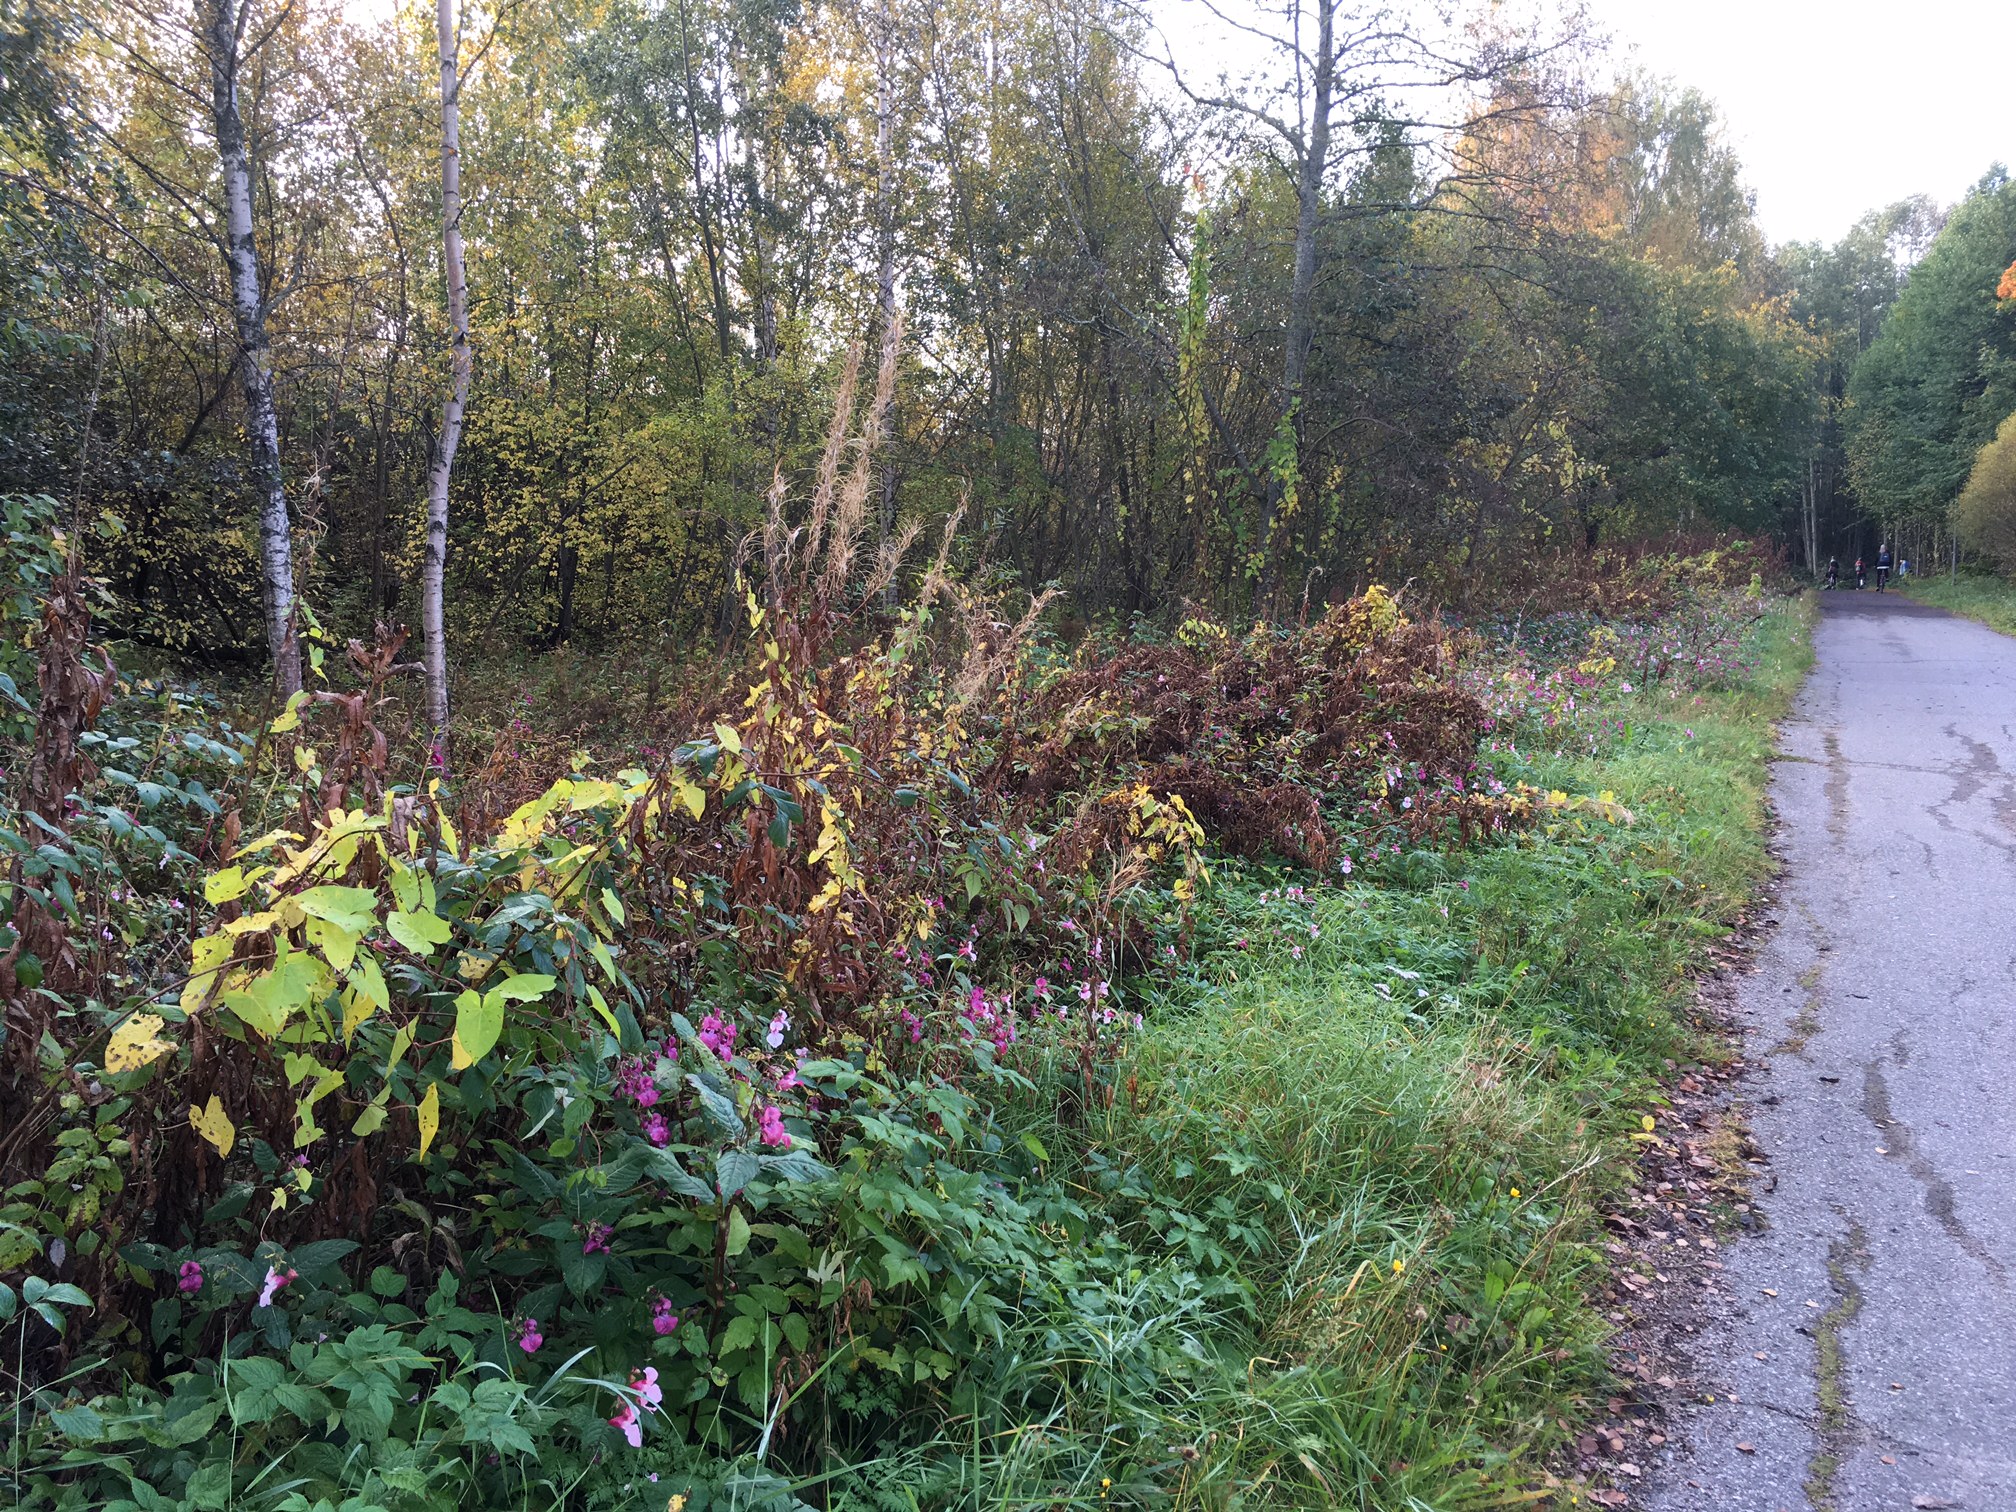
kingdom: Plantae
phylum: Tracheophyta
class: Magnoliopsida
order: Ericales
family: Balsaminaceae
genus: Impatiens
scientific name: Impatiens parviflora
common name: Small balsam
